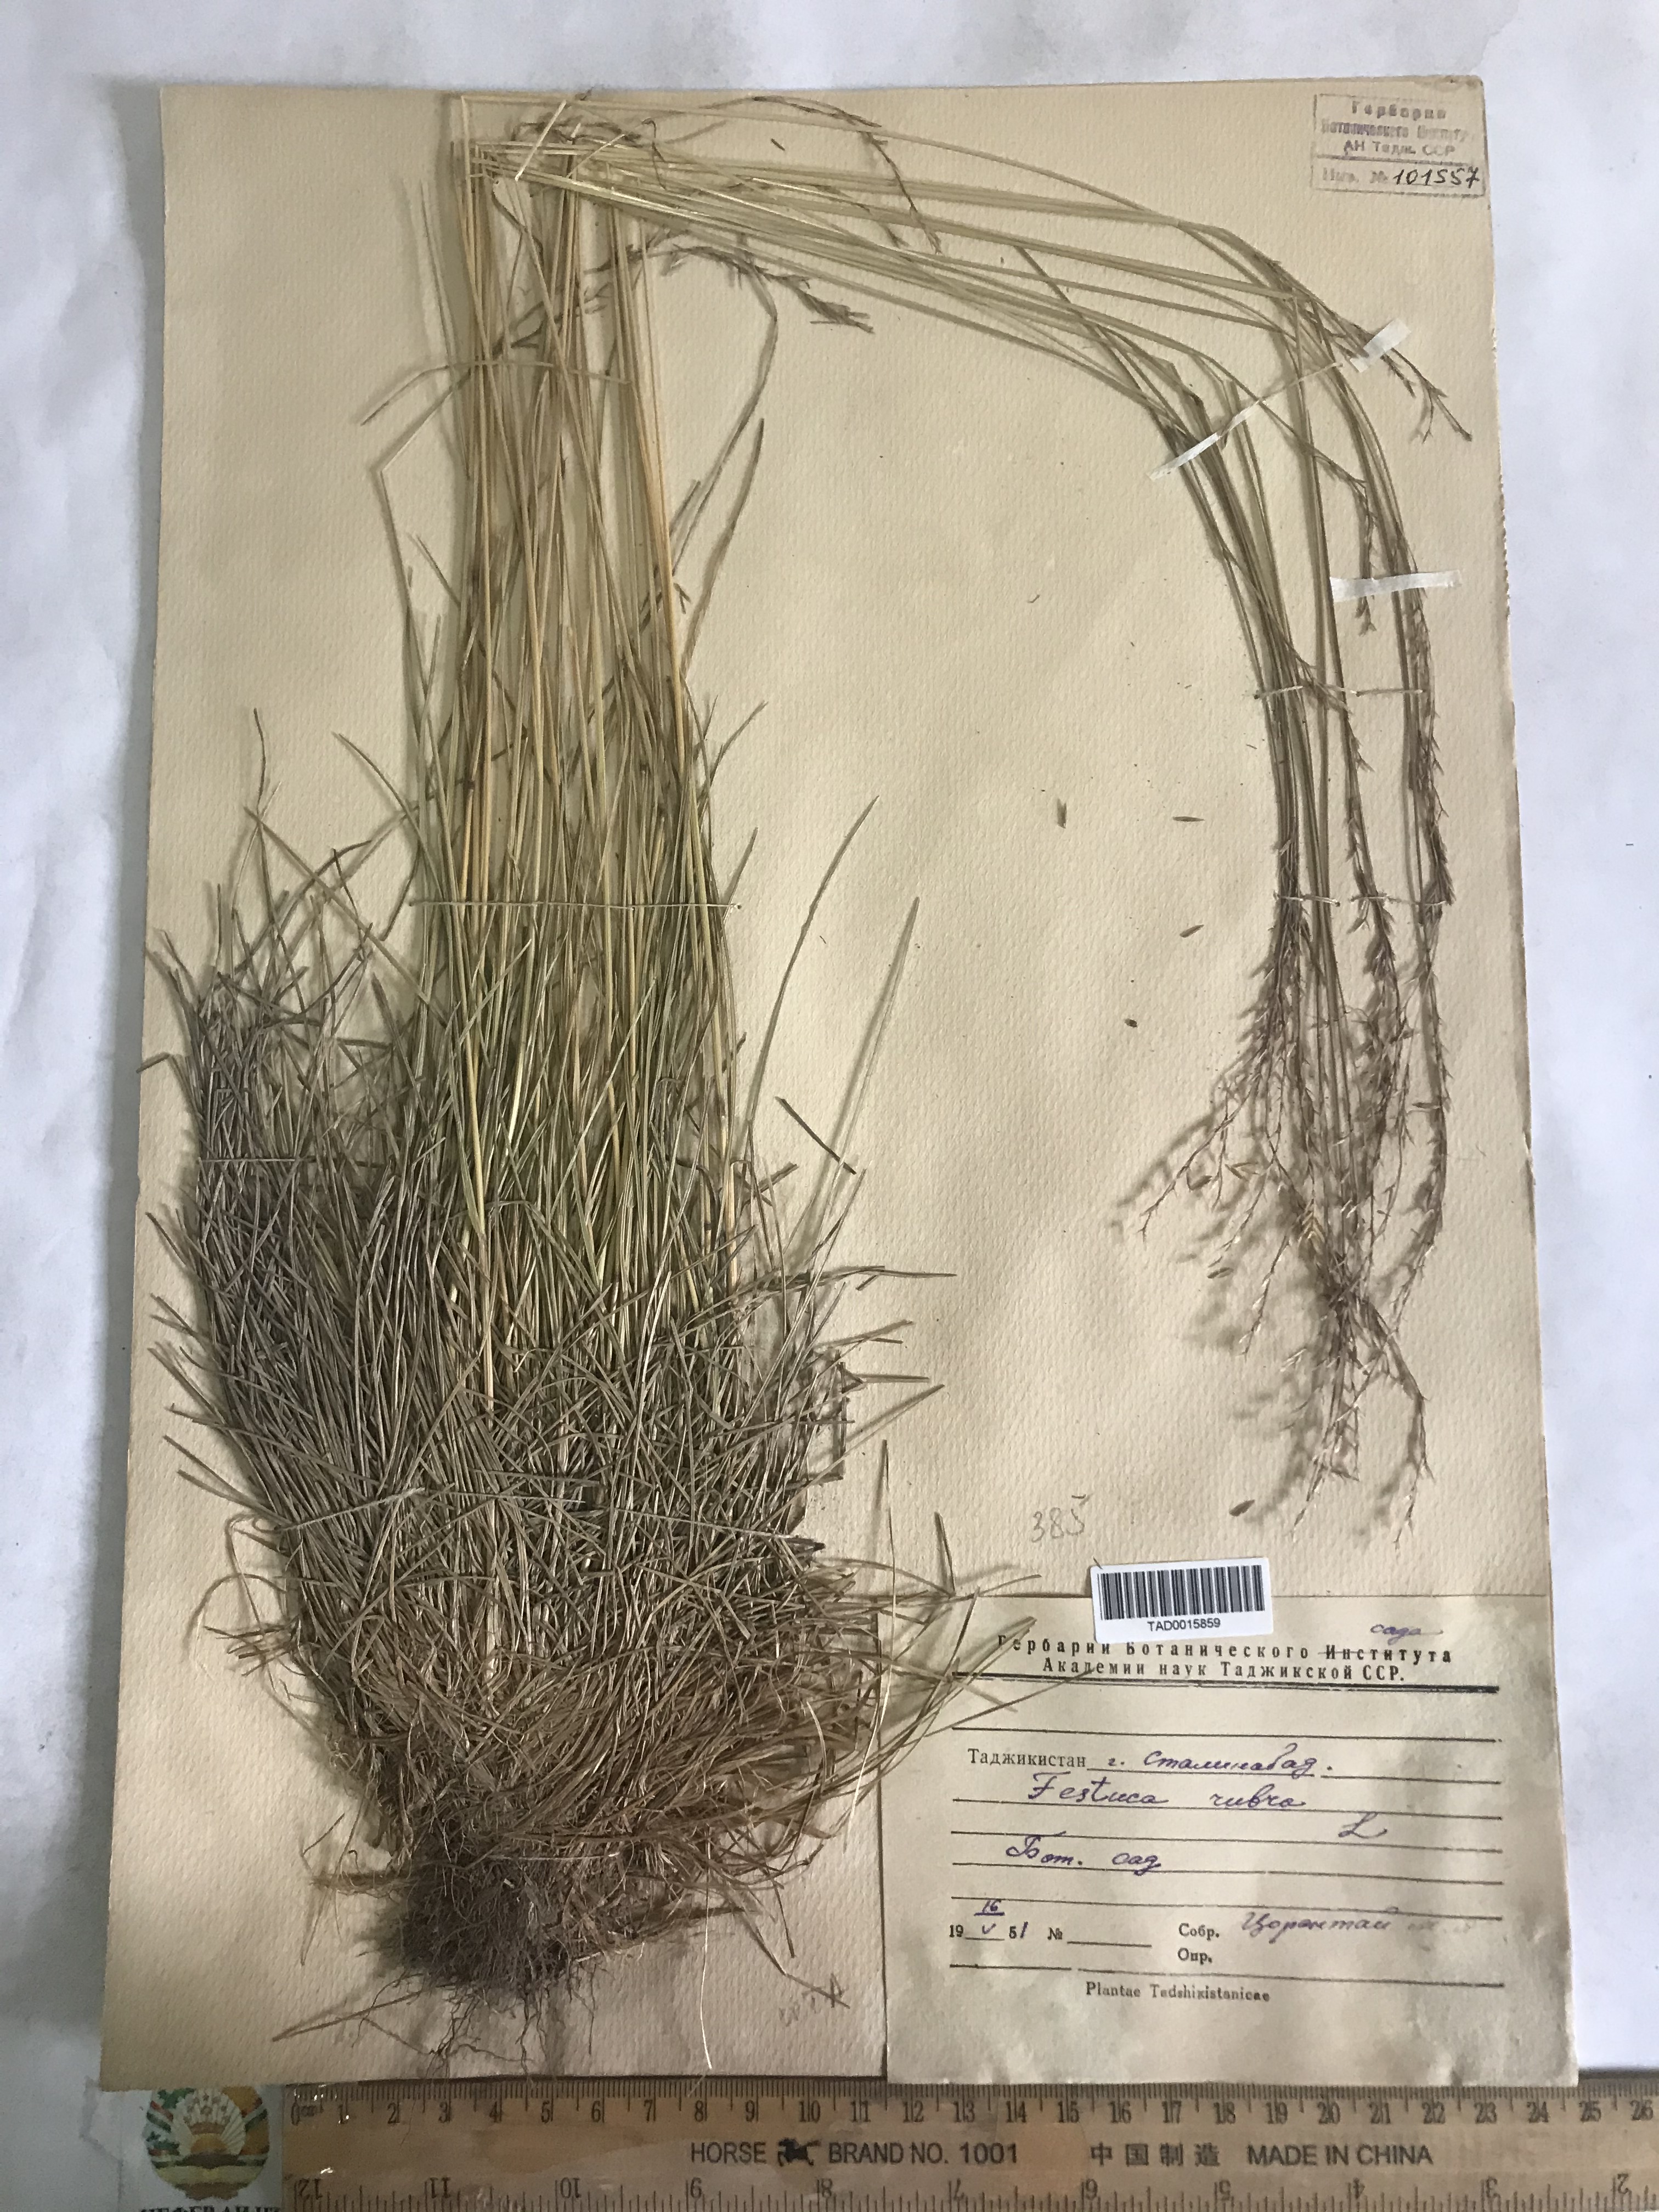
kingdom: Plantae
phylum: Tracheophyta
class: Liliopsida
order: Poales
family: Poaceae
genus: Festuca
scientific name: Festuca rubra
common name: Red fescue
